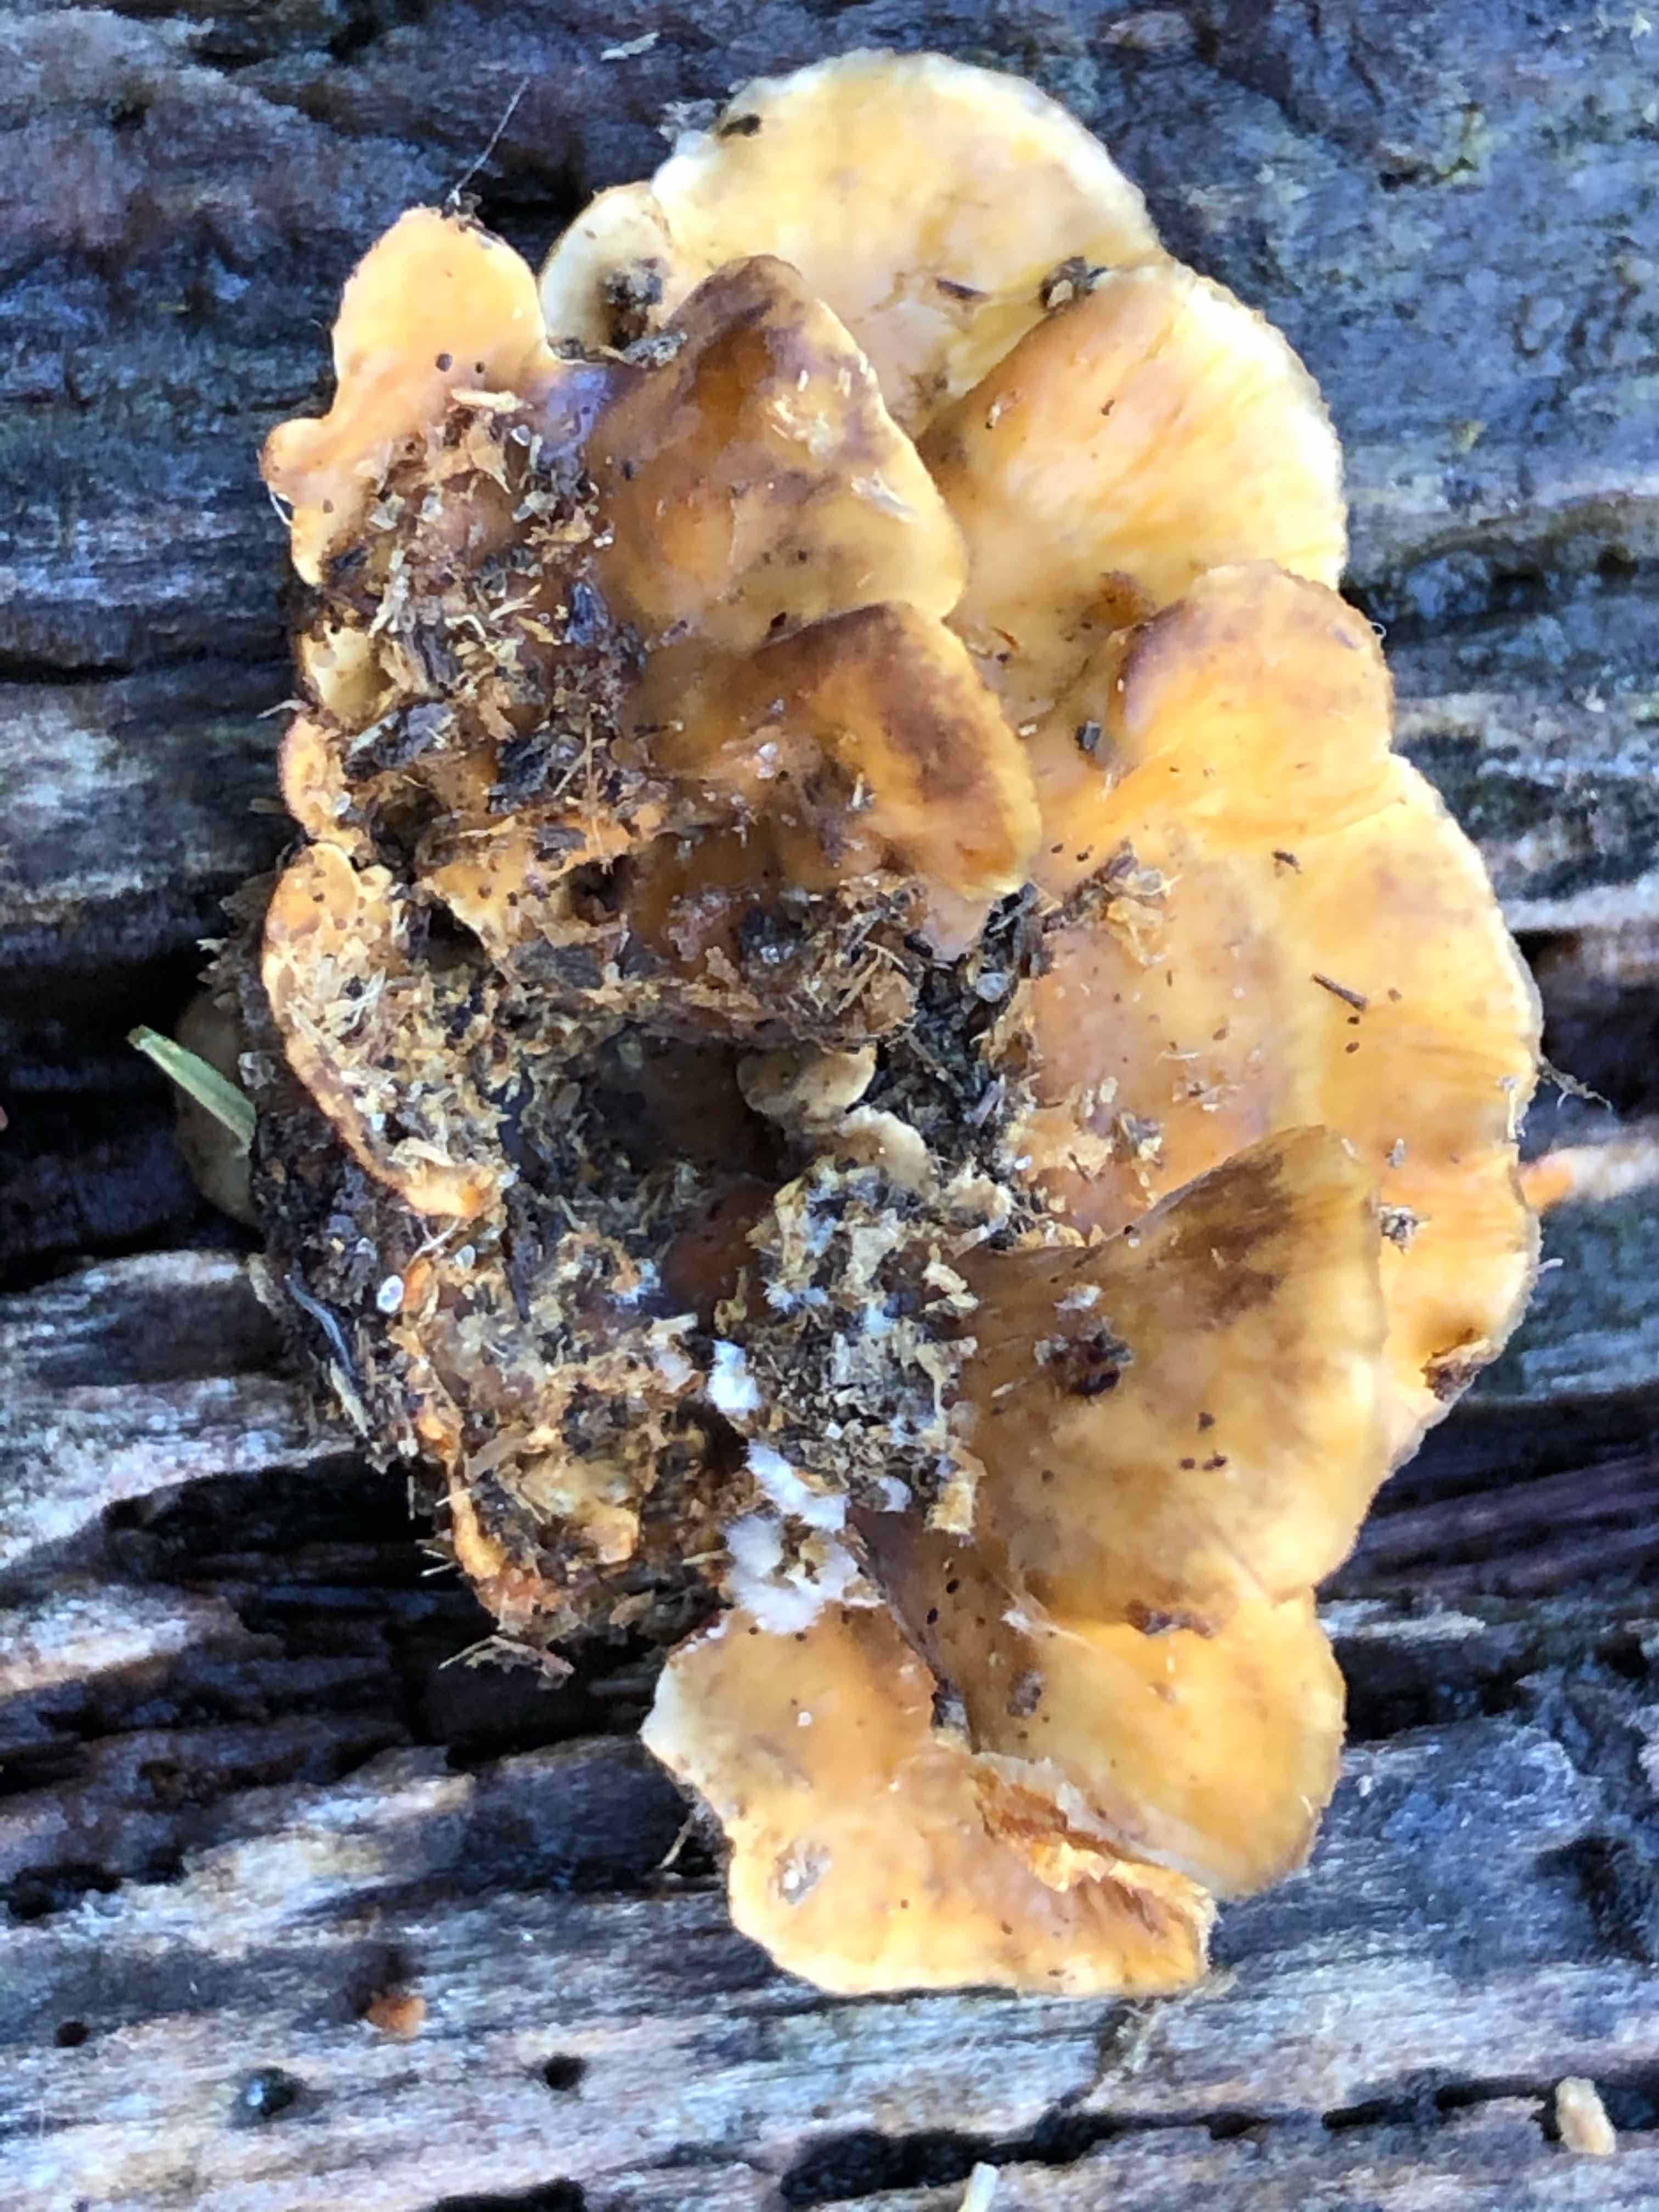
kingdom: Fungi
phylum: Basidiomycota
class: Agaricomycetes
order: Russulales
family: Stereaceae
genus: Stereum
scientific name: Stereum hirsutum
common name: håret lædersvamp
